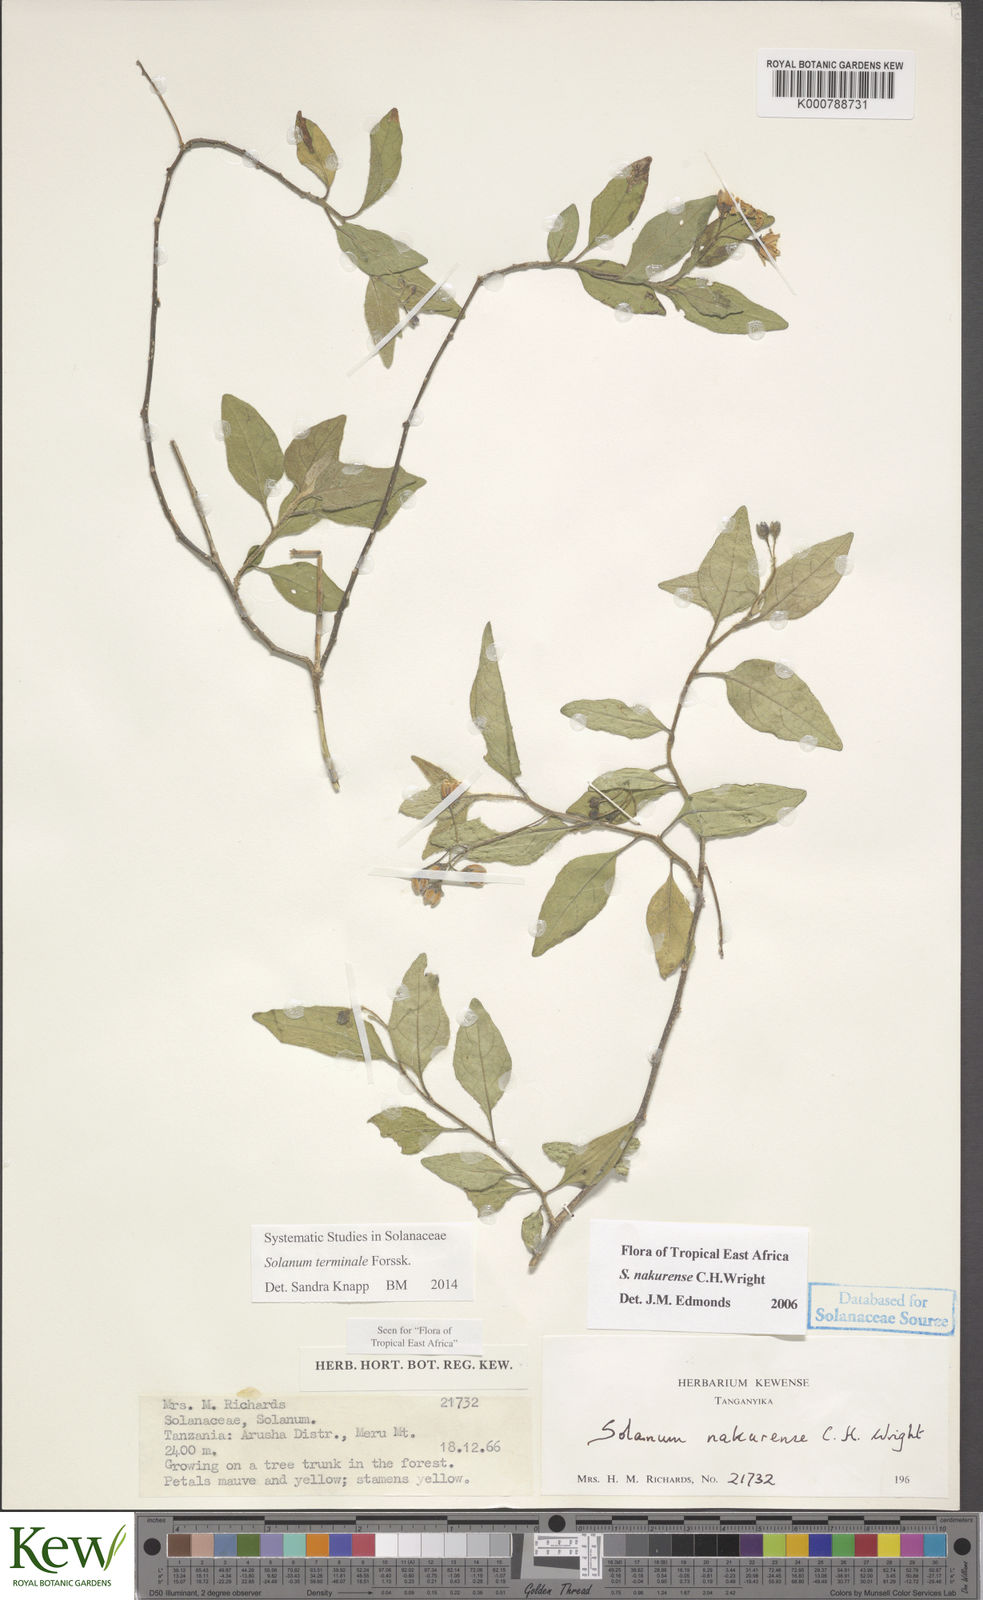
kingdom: Plantae
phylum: Tracheophyta
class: Magnoliopsida
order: Solanales
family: Solanaceae
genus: Solanum
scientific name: Solanum terminale
